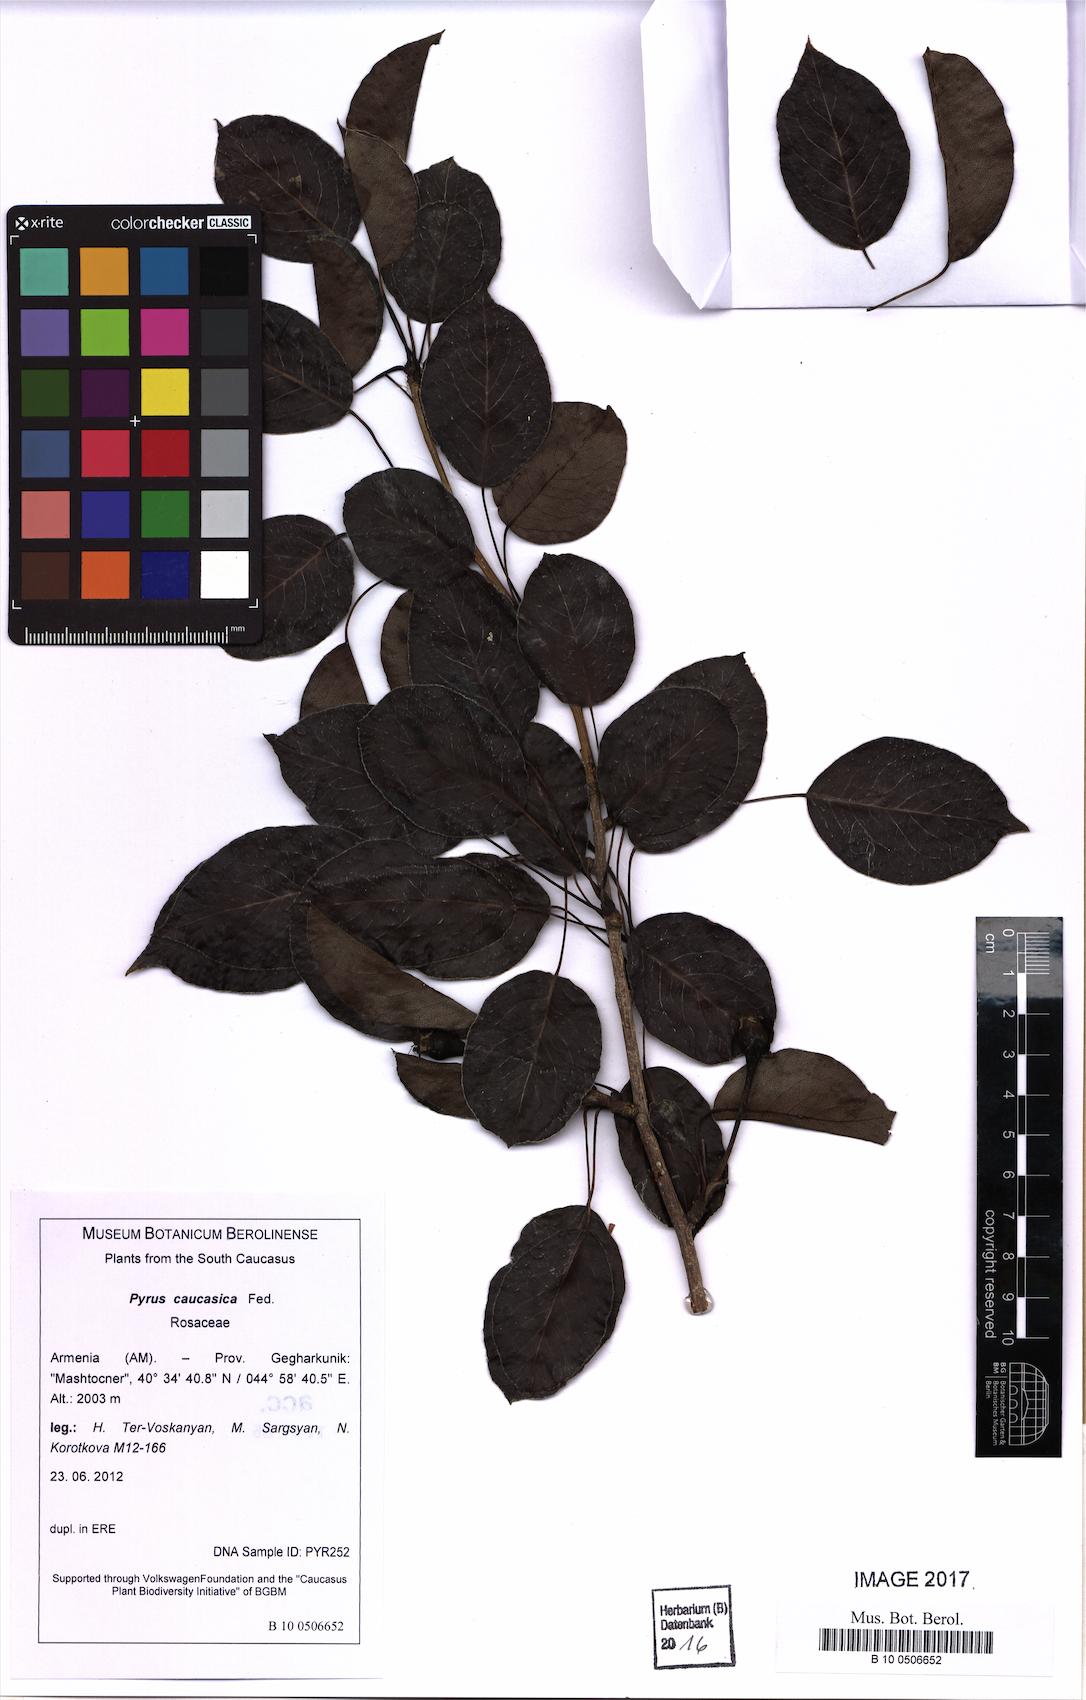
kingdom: Plantae
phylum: Tracheophyta
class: Magnoliopsida
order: Rosales
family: Rosaceae
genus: Pyrus
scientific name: Pyrus communis
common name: Pear
